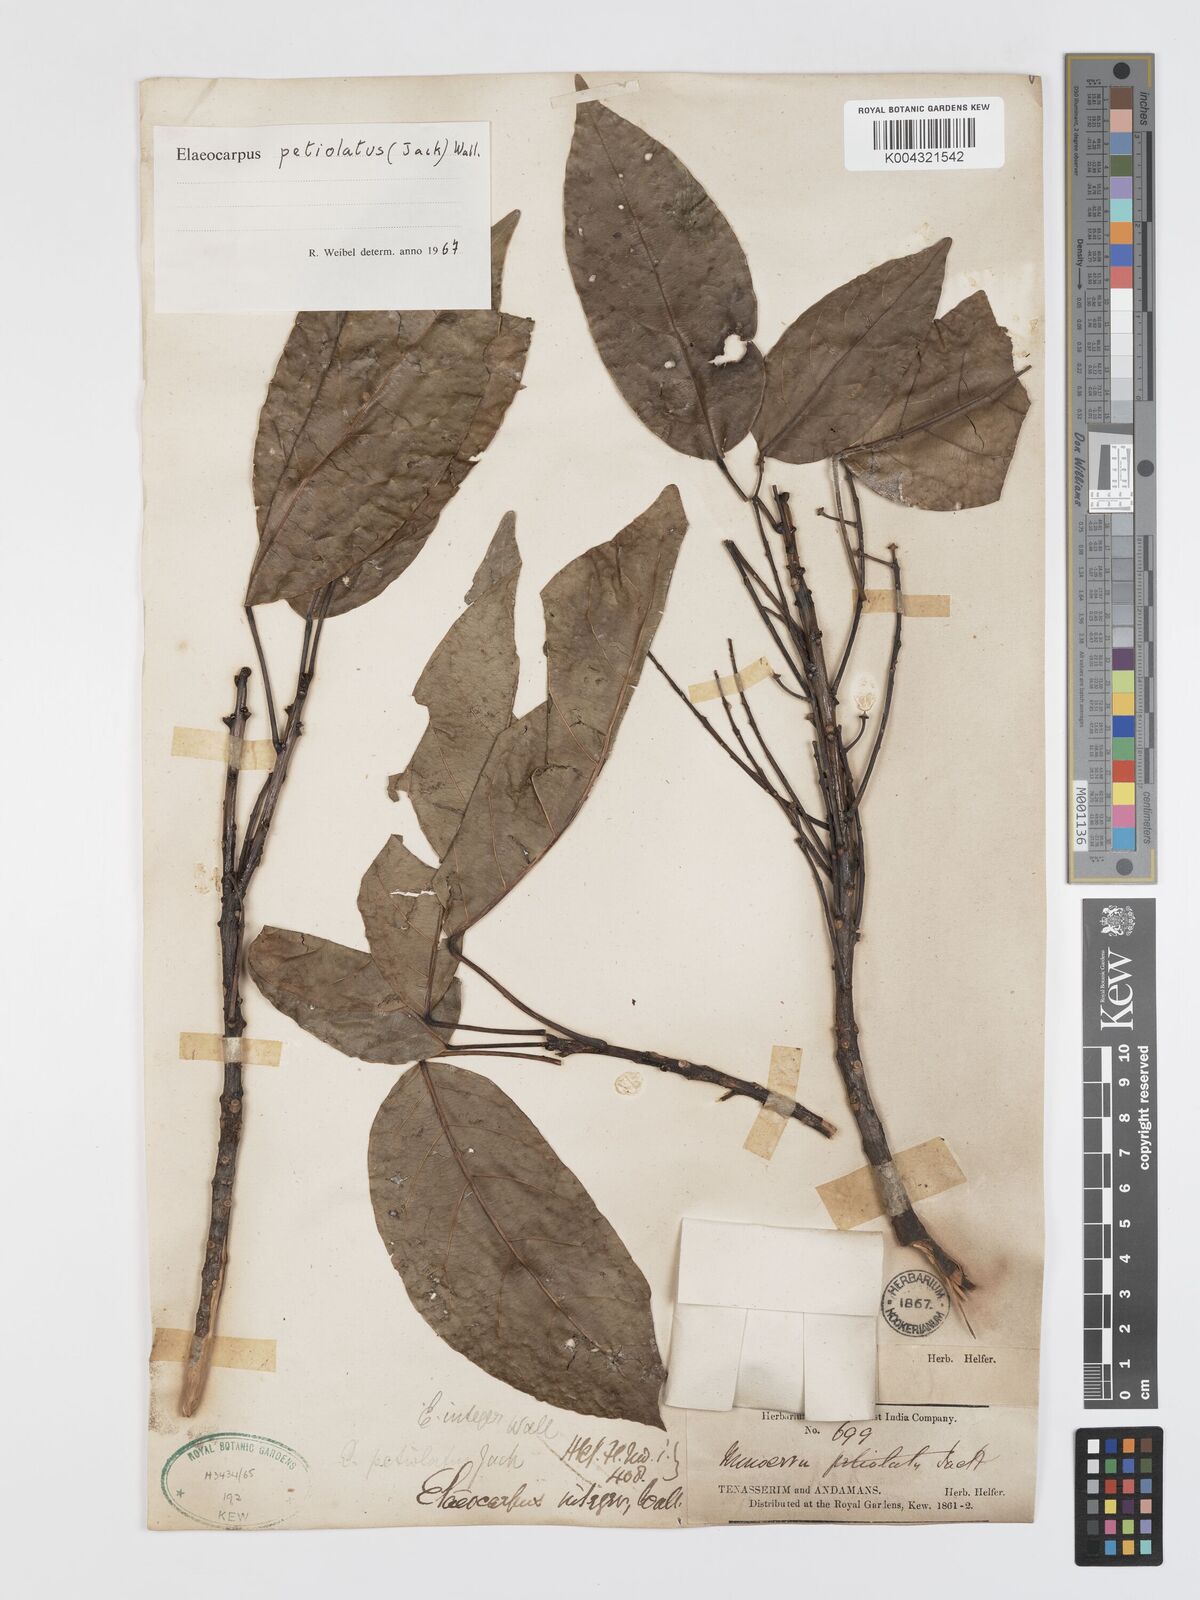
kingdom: Plantae
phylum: Tracheophyta
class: Magnoliopsida
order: Oxalidales
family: Elaeocarpaceae
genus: Elaeocarpus
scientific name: Elaeocarpus petiolatus
